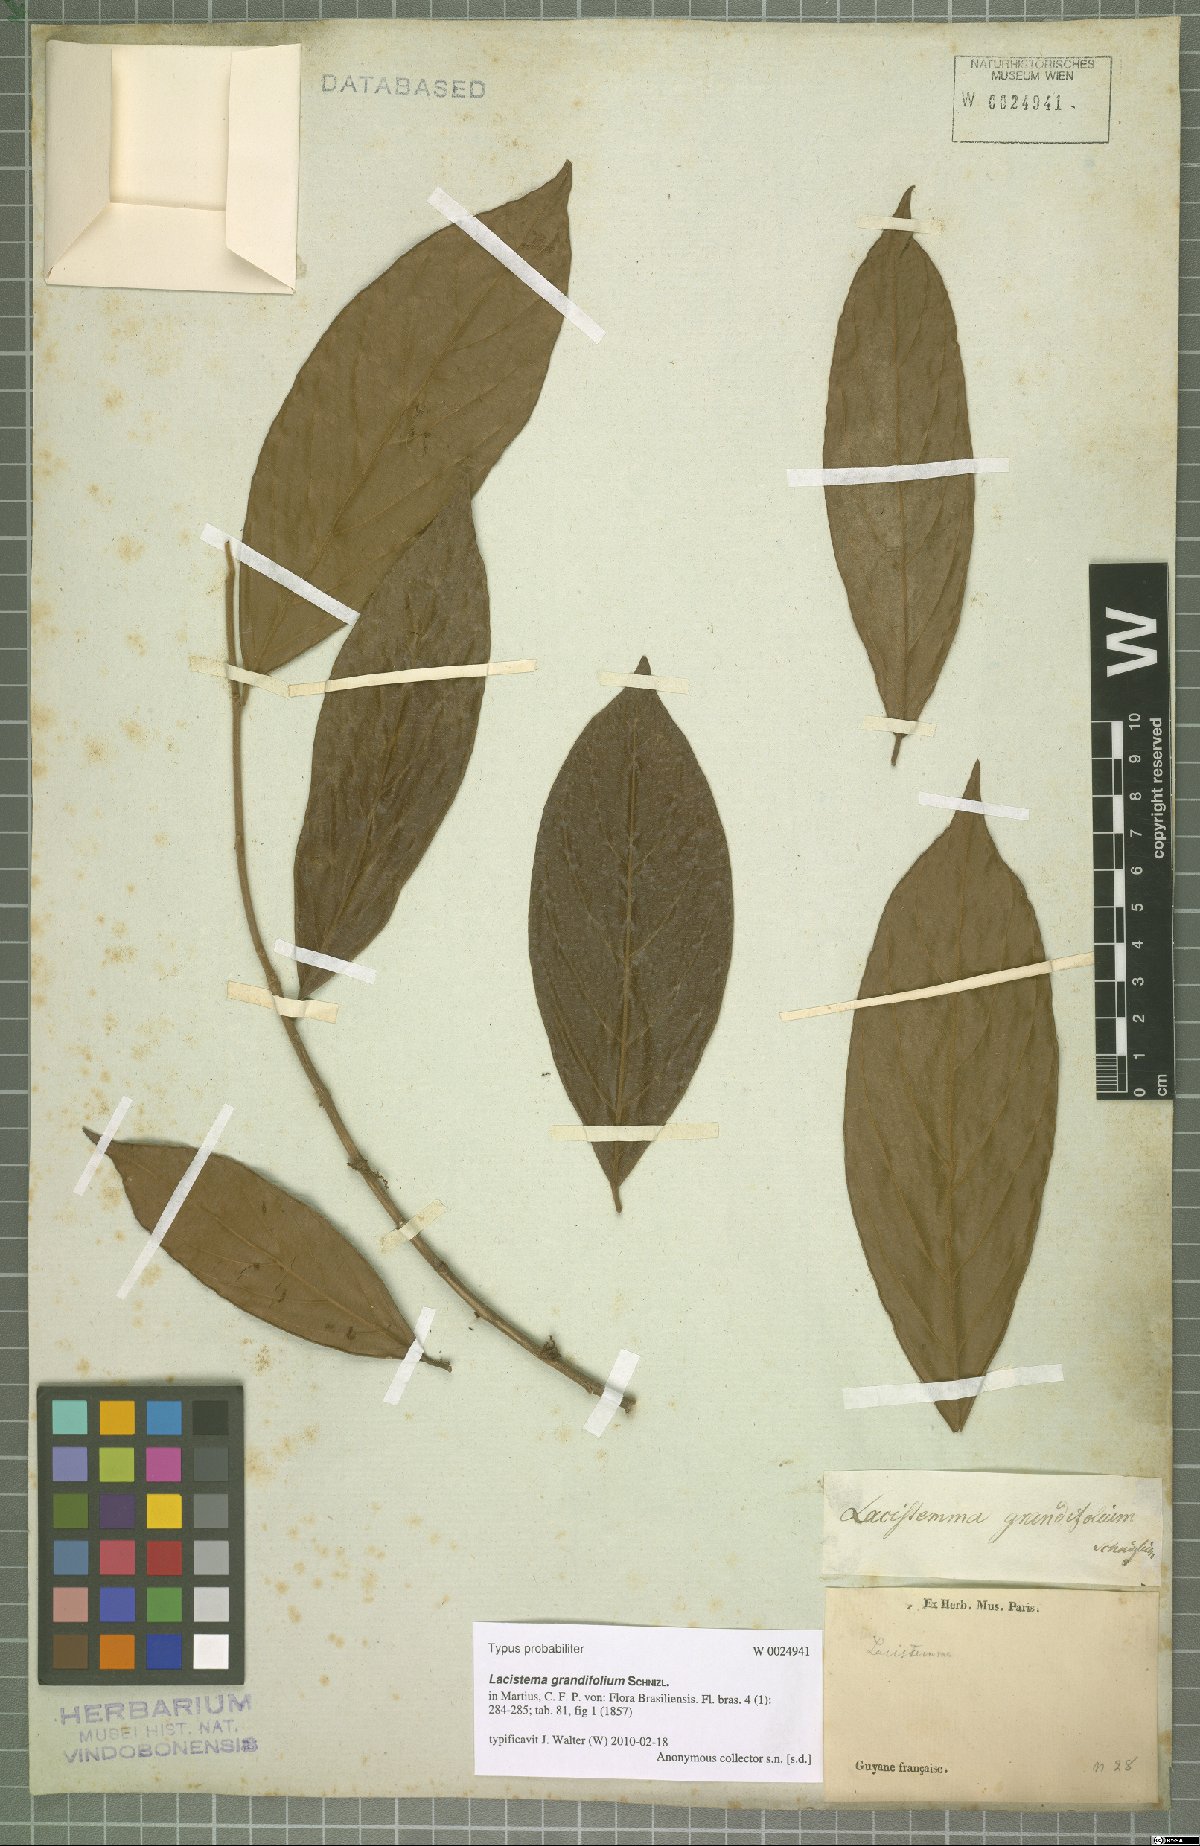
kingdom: Plantae
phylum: Tracheophyta
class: Magnoliopsida
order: Malpighiales
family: Lacistemataceae
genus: Lacistema
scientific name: Lacistema grandifolium
